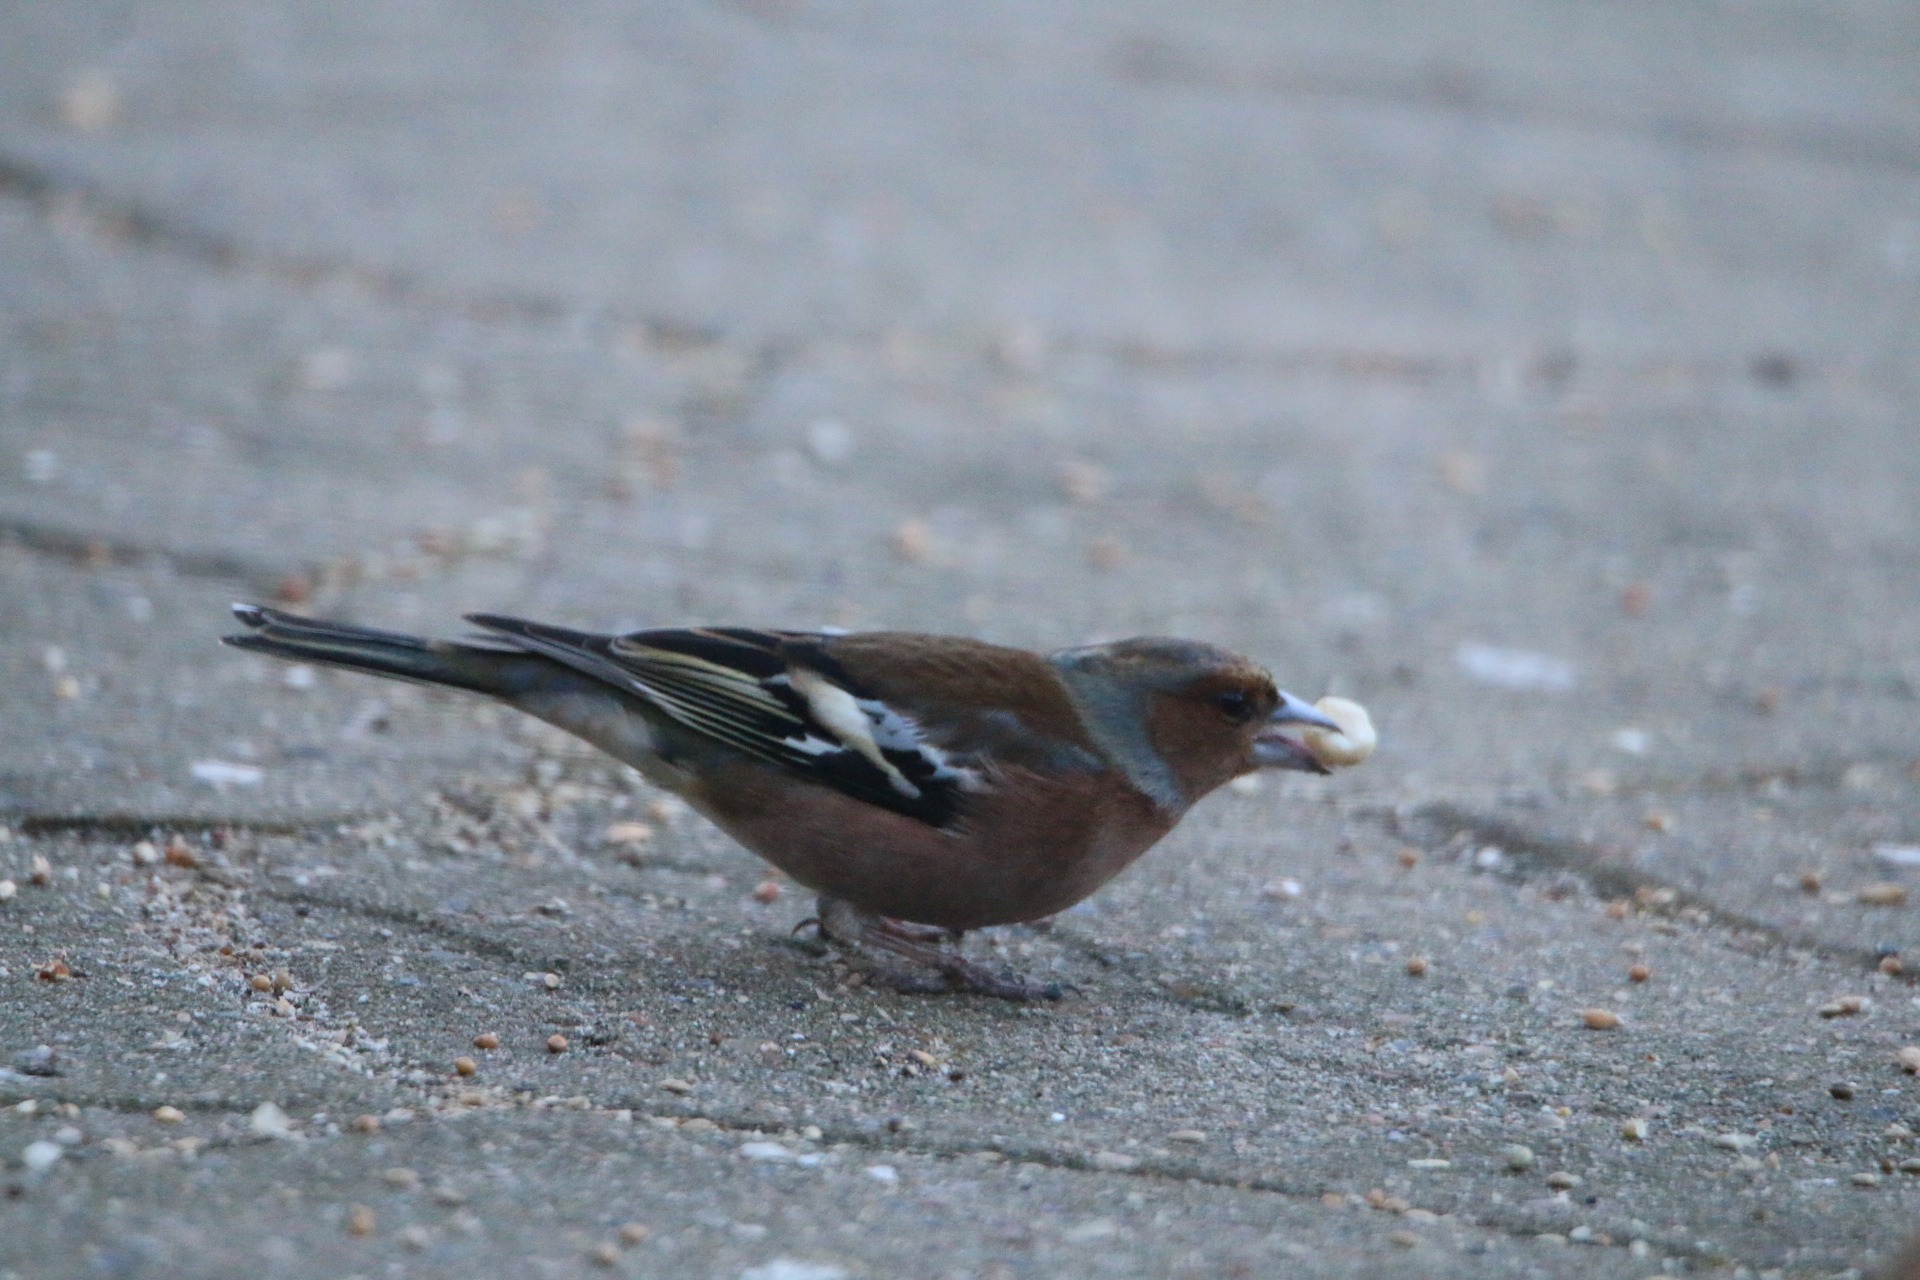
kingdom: Animalia
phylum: Chordata
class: Aves
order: Passeriformes
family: Fringillidae
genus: Fringilla
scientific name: Fringilla coelebs
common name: Bogfinke
